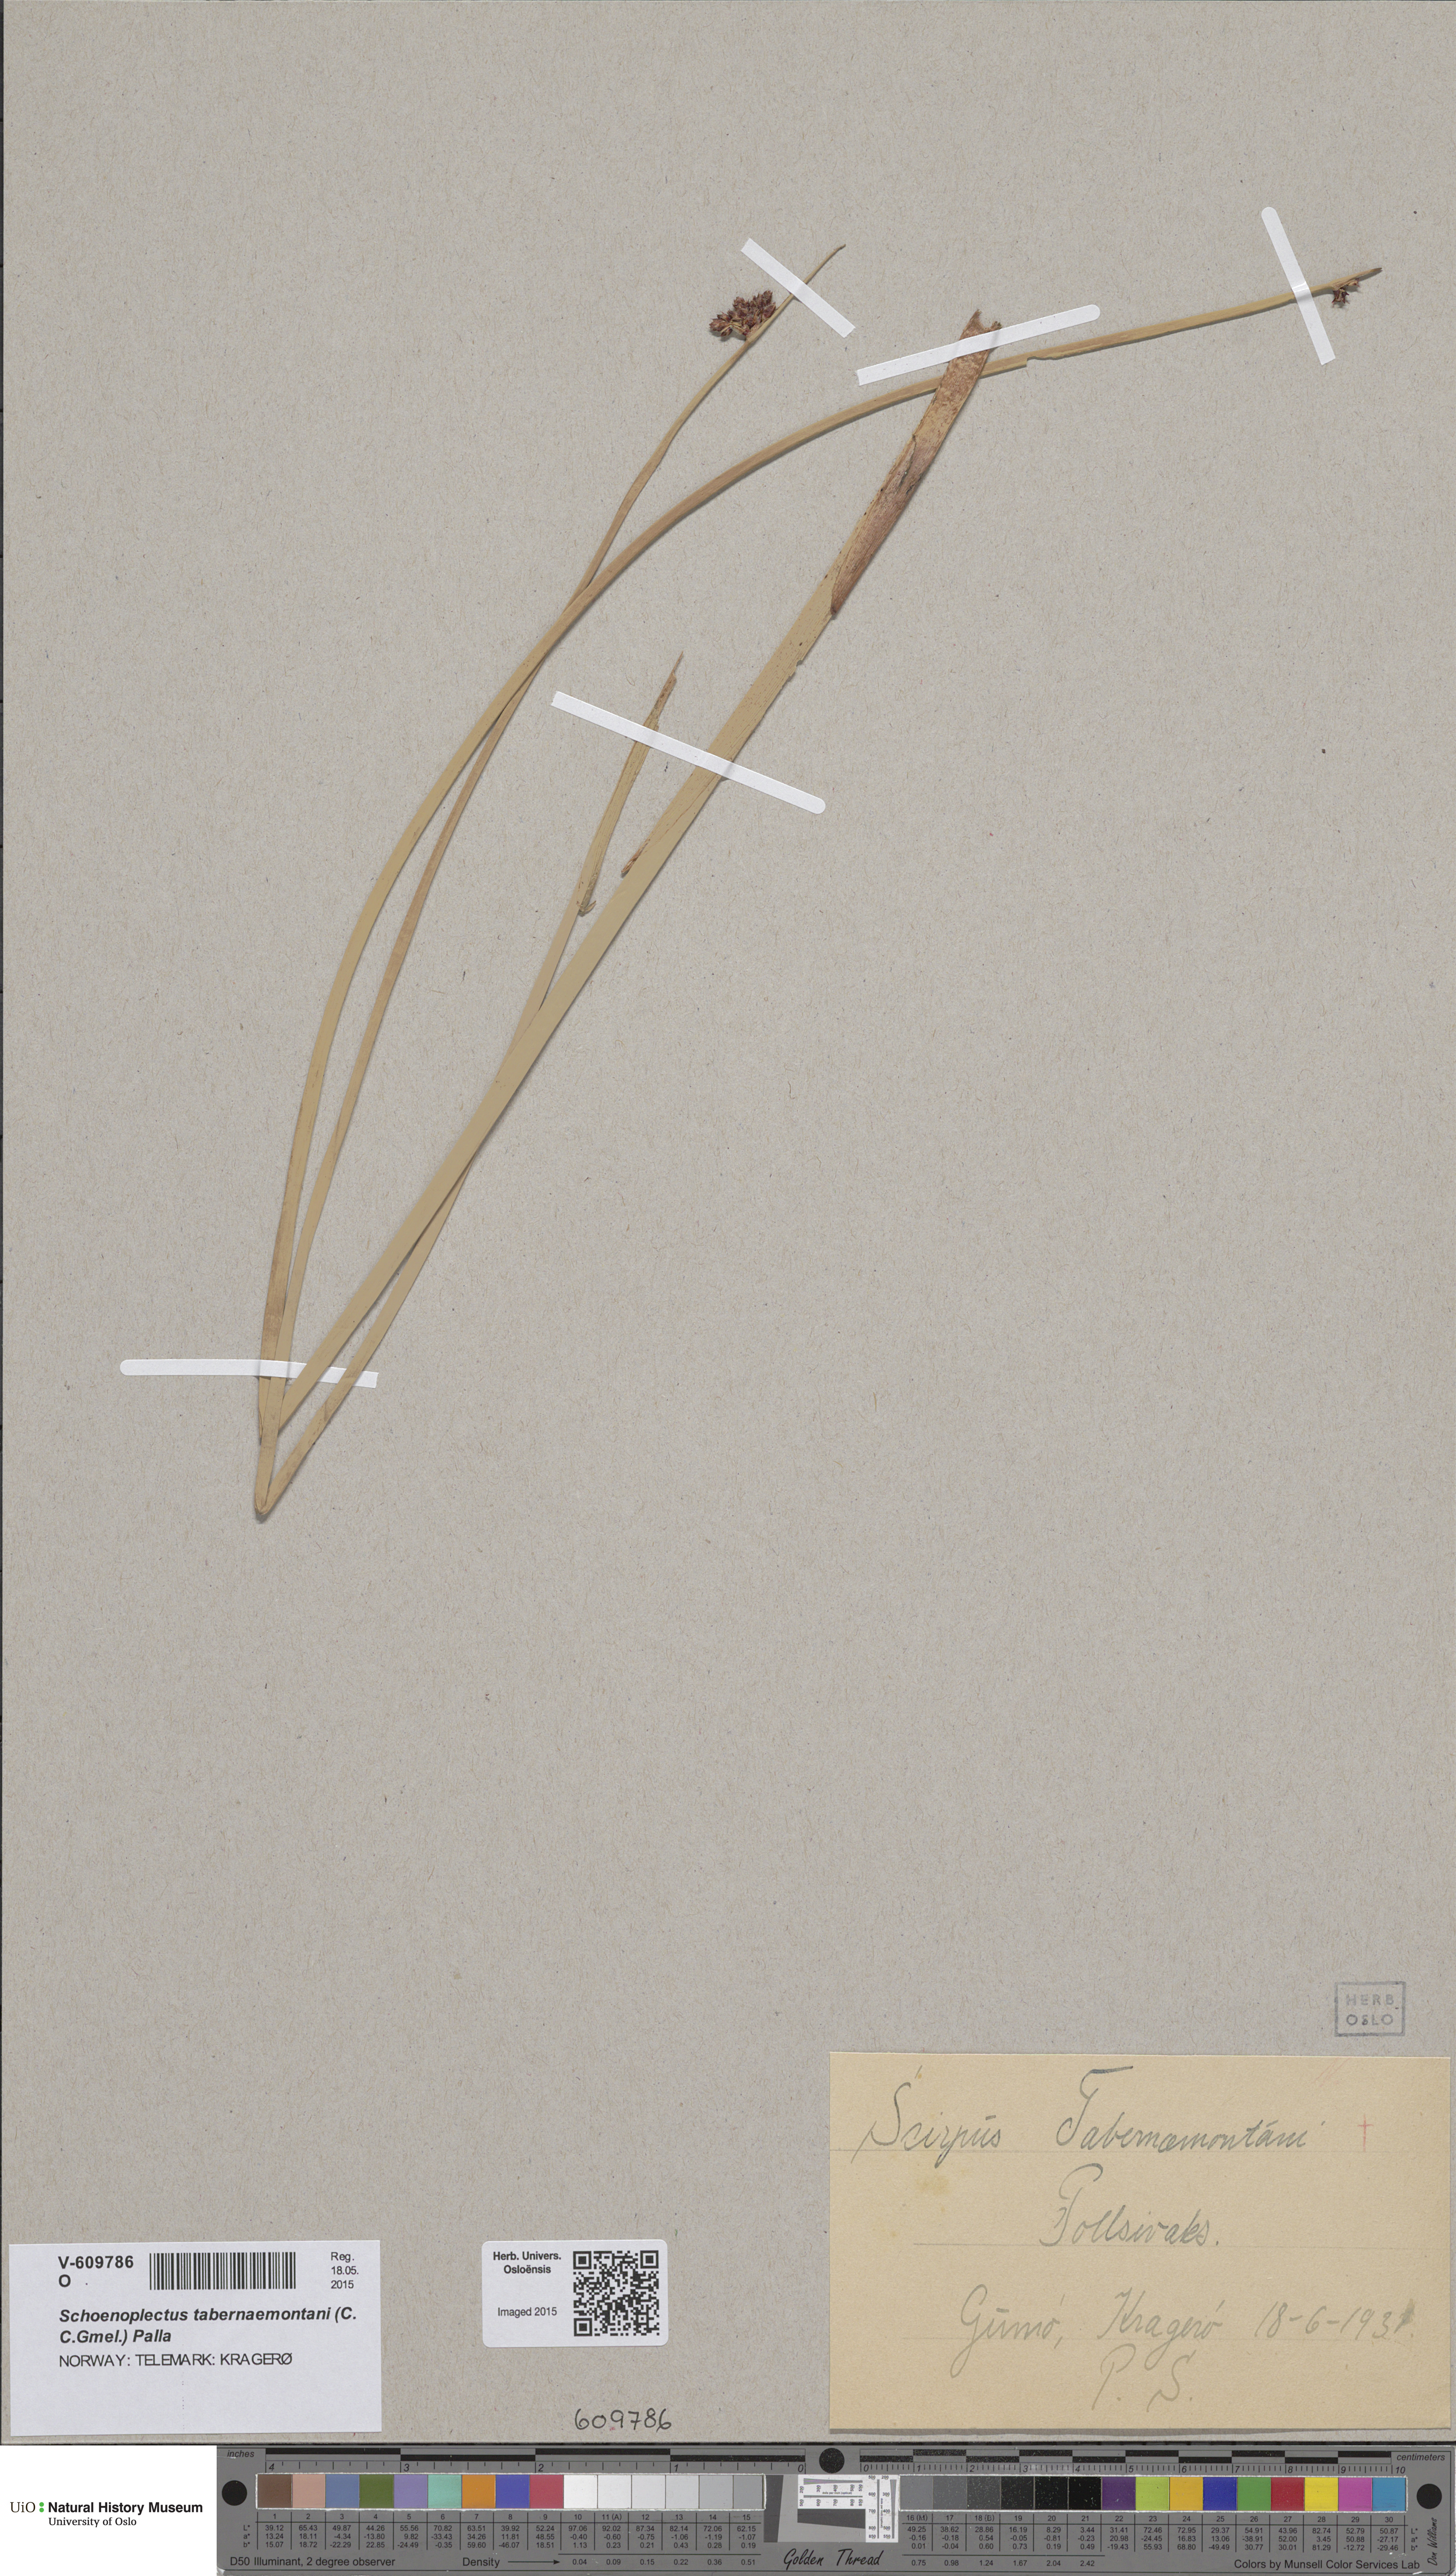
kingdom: Plantae
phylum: Tracheophyta
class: Liliopsida
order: Poales
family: Cyperaceae
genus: Schoenoplectus
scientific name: Schoenoplectus tabernaemontani
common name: Grey club-rush
